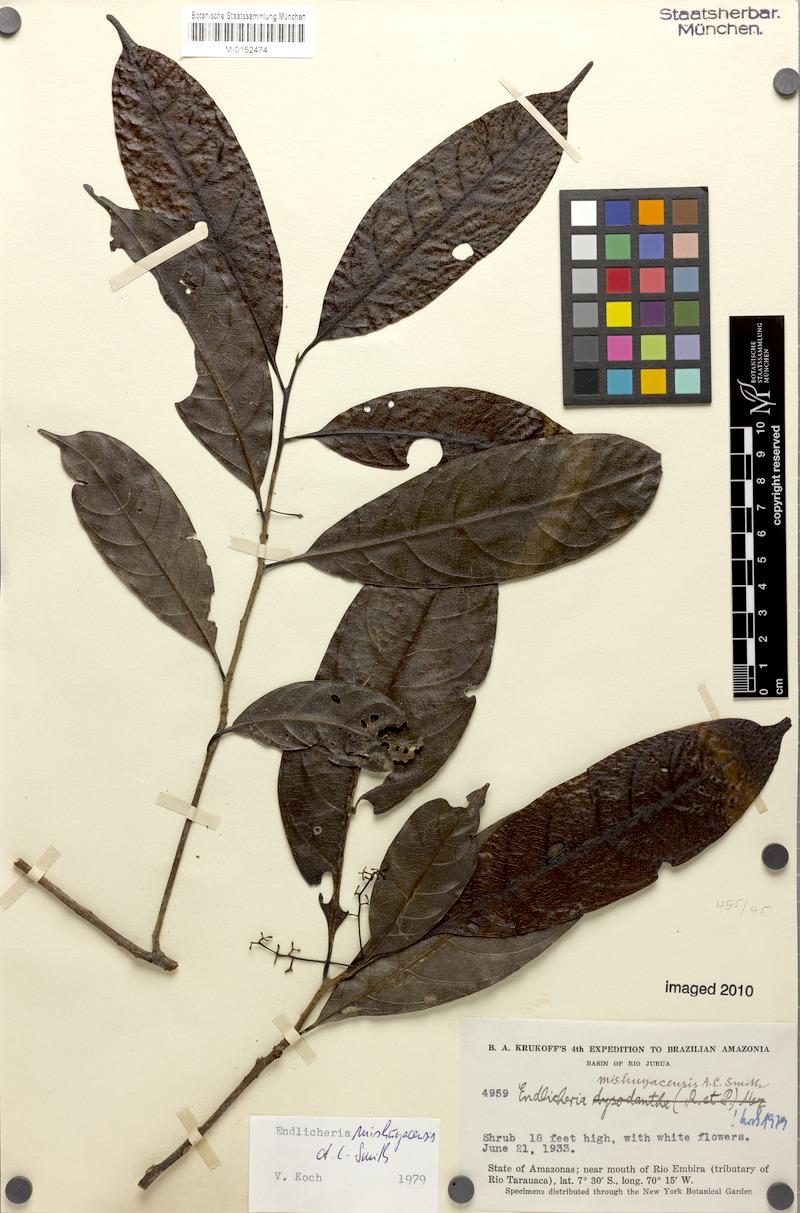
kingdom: Plantae
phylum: Tracheophyta
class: Magnoliopsida
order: Laurales
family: Lauraceae
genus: Endlicheria
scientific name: Endlicheria mishuyacensis
